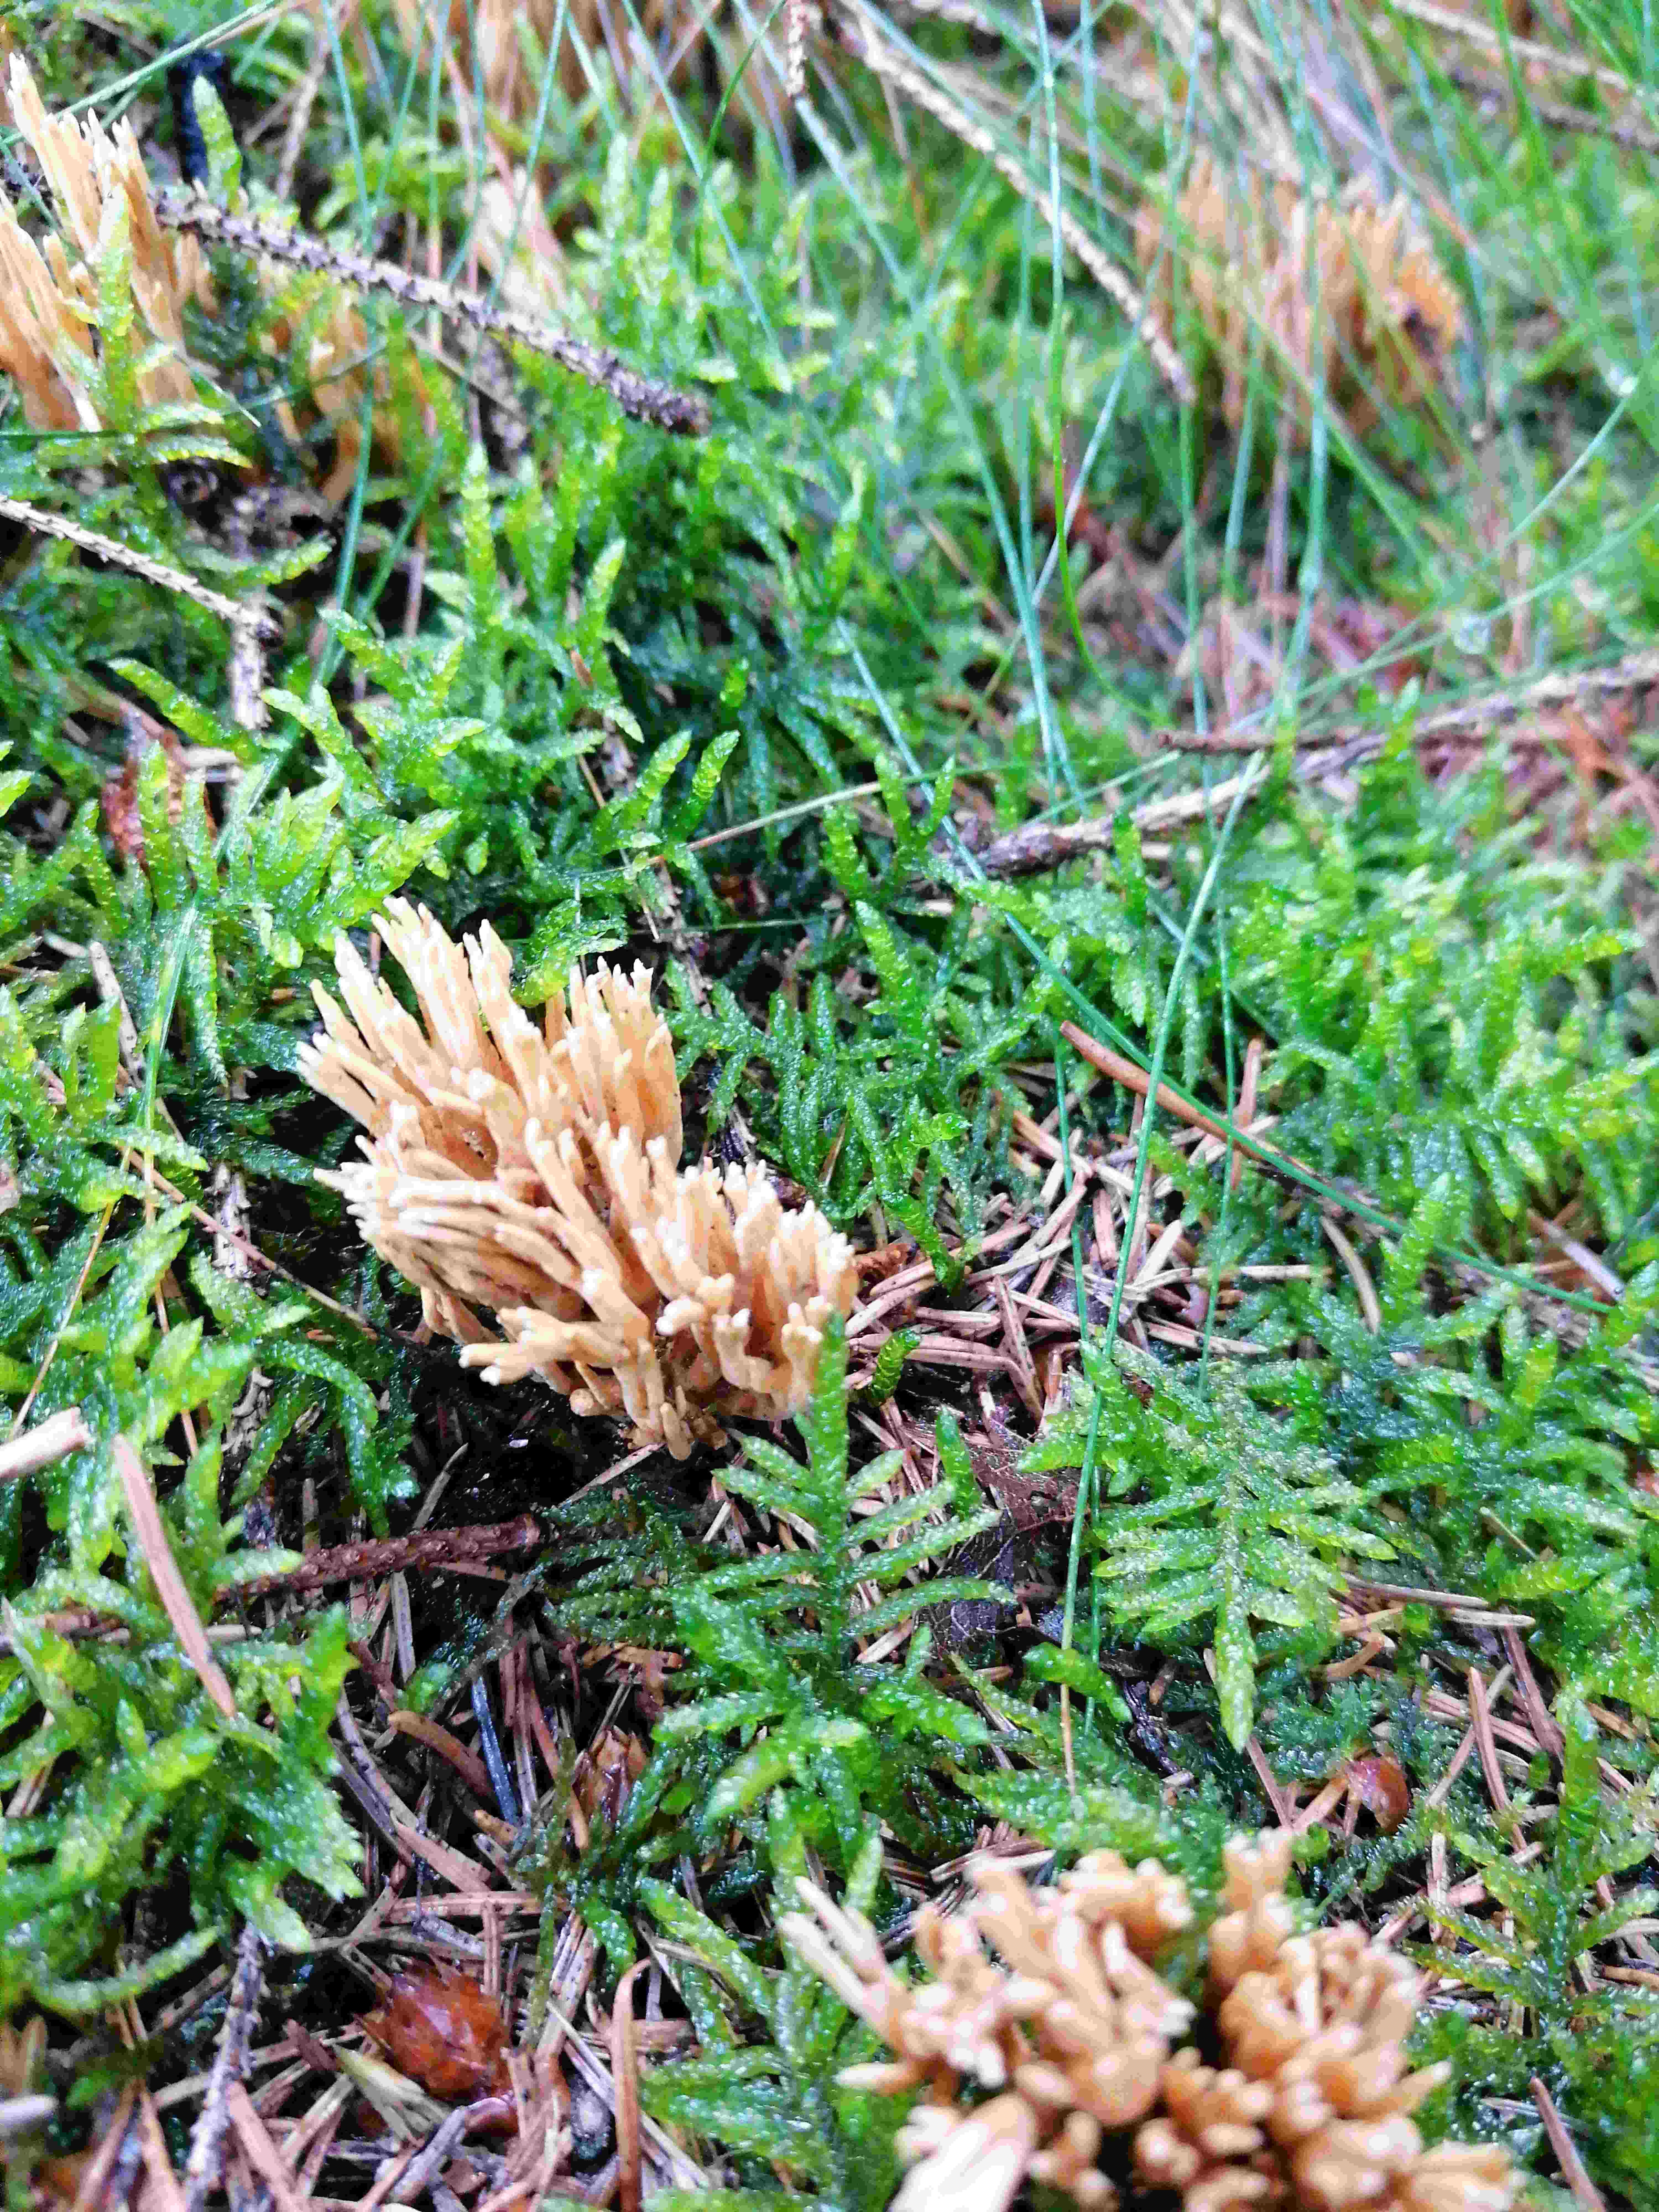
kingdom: Fungi
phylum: Basidiomycota
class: Agaricomycetes
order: Gomphales
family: Gomphaceae
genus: Phaeoclavulina
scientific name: Phaeoclavulina
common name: koralsvamp
